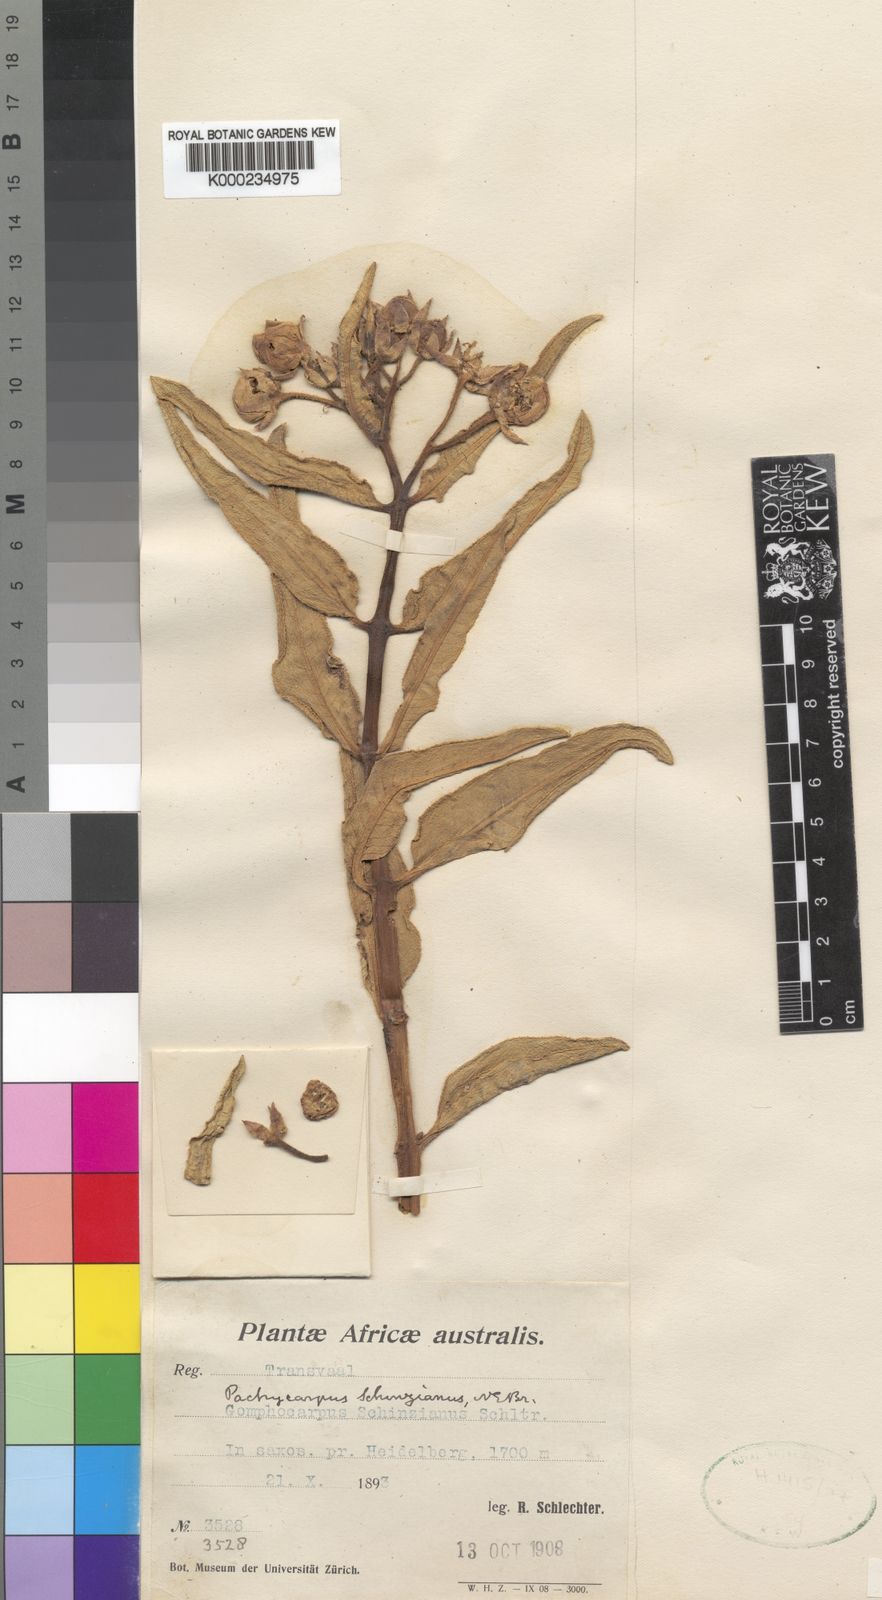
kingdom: Plantae
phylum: Tracheophyta
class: Magnoliopsida
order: Gentianales
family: Apocynaceae
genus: Pachycarpus
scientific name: Pachycarpus schinzianus
